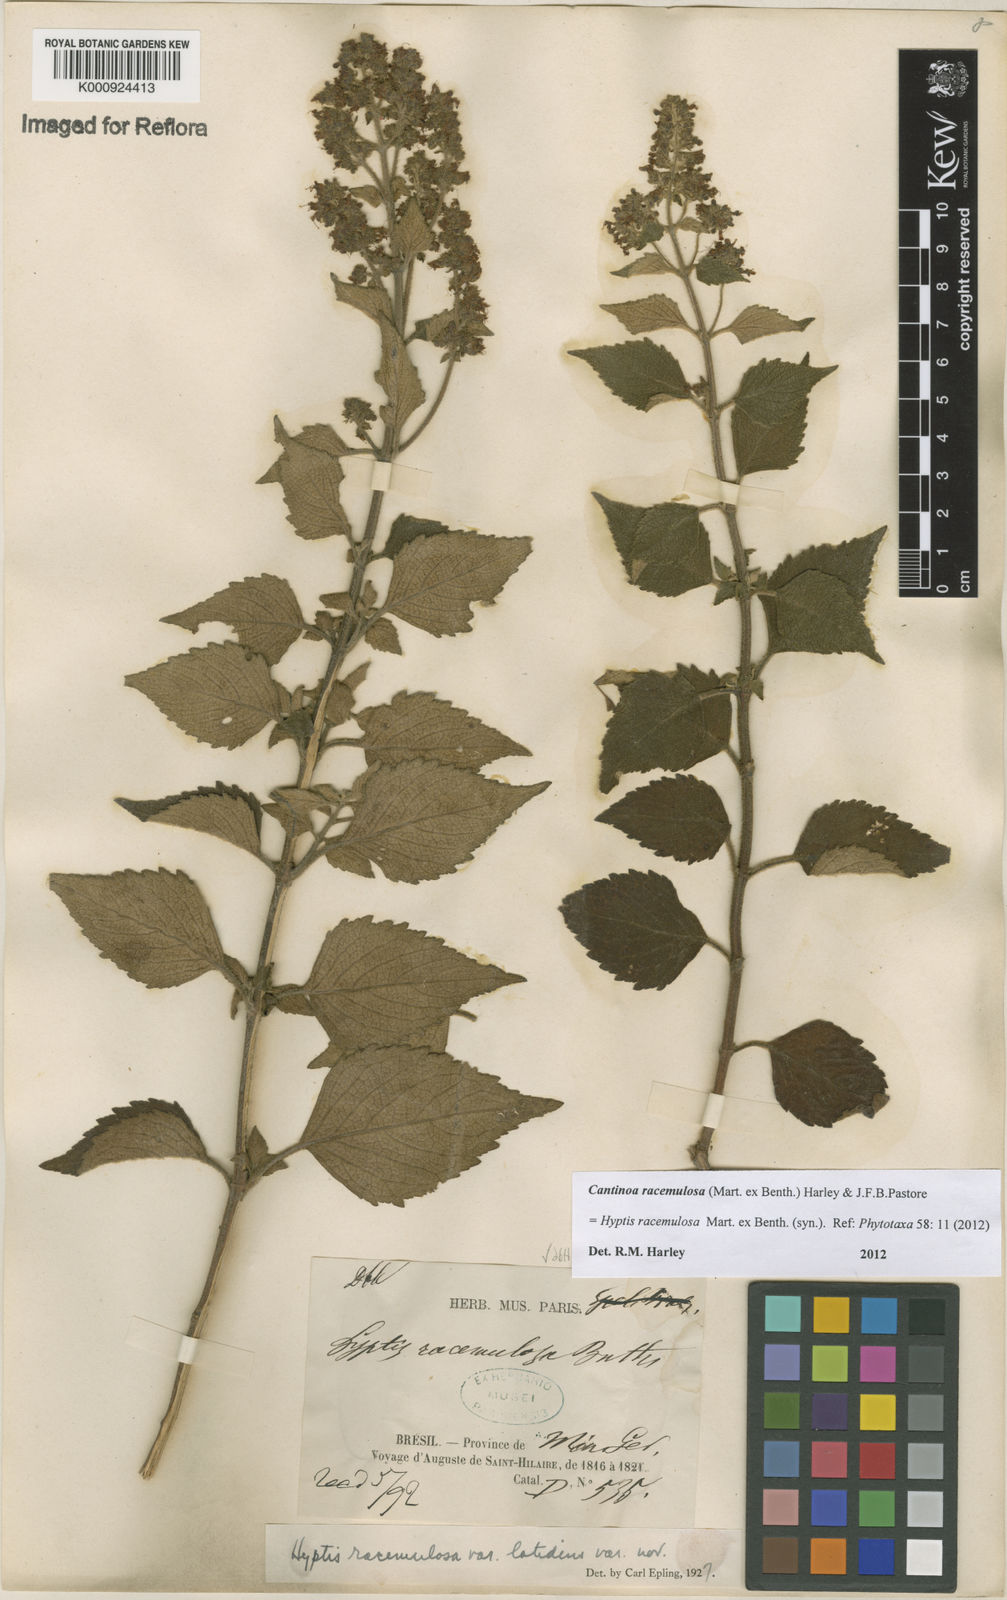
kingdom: Plantae
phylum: Tracheophyta
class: Magnoliopsida
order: Lamiales
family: Lamiaceae
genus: Cantinoa
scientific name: Cantinoa racemulosa
